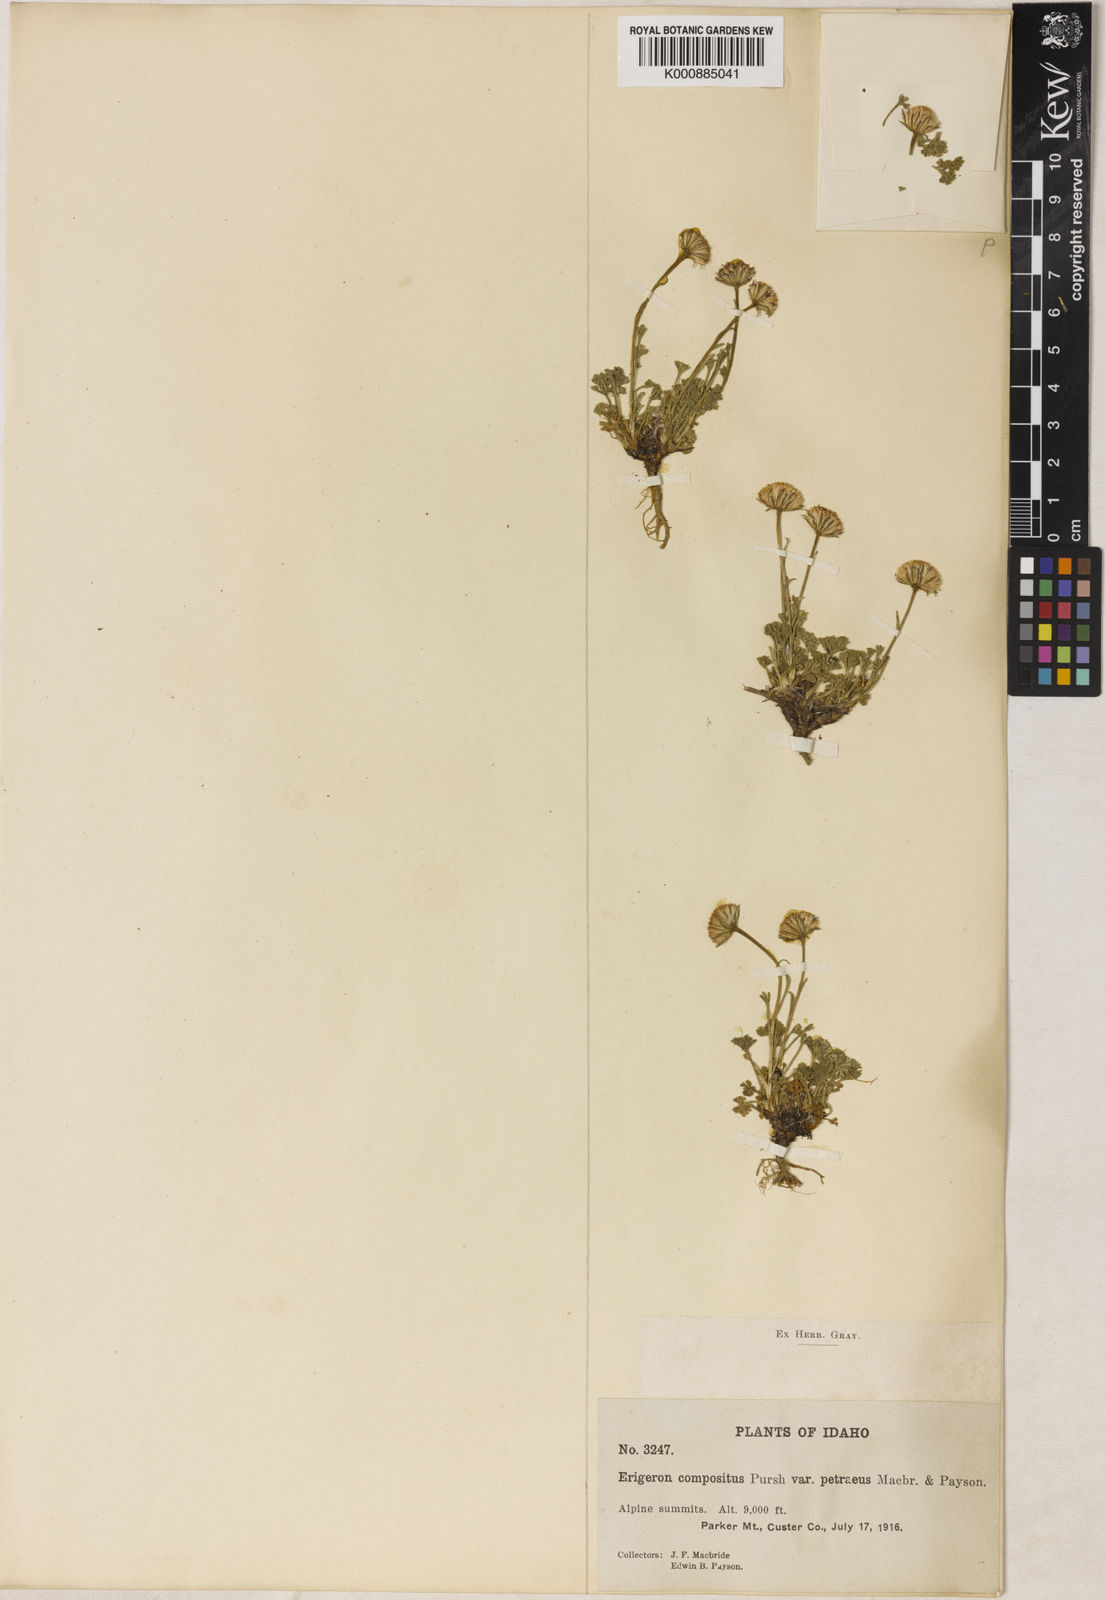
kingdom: Plantae
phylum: Tracheophyta
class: Magnoliopsida
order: Asterales
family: Asteraceae
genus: Erigeron
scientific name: Erigeron compositus
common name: Dwarf mountain fleabane
